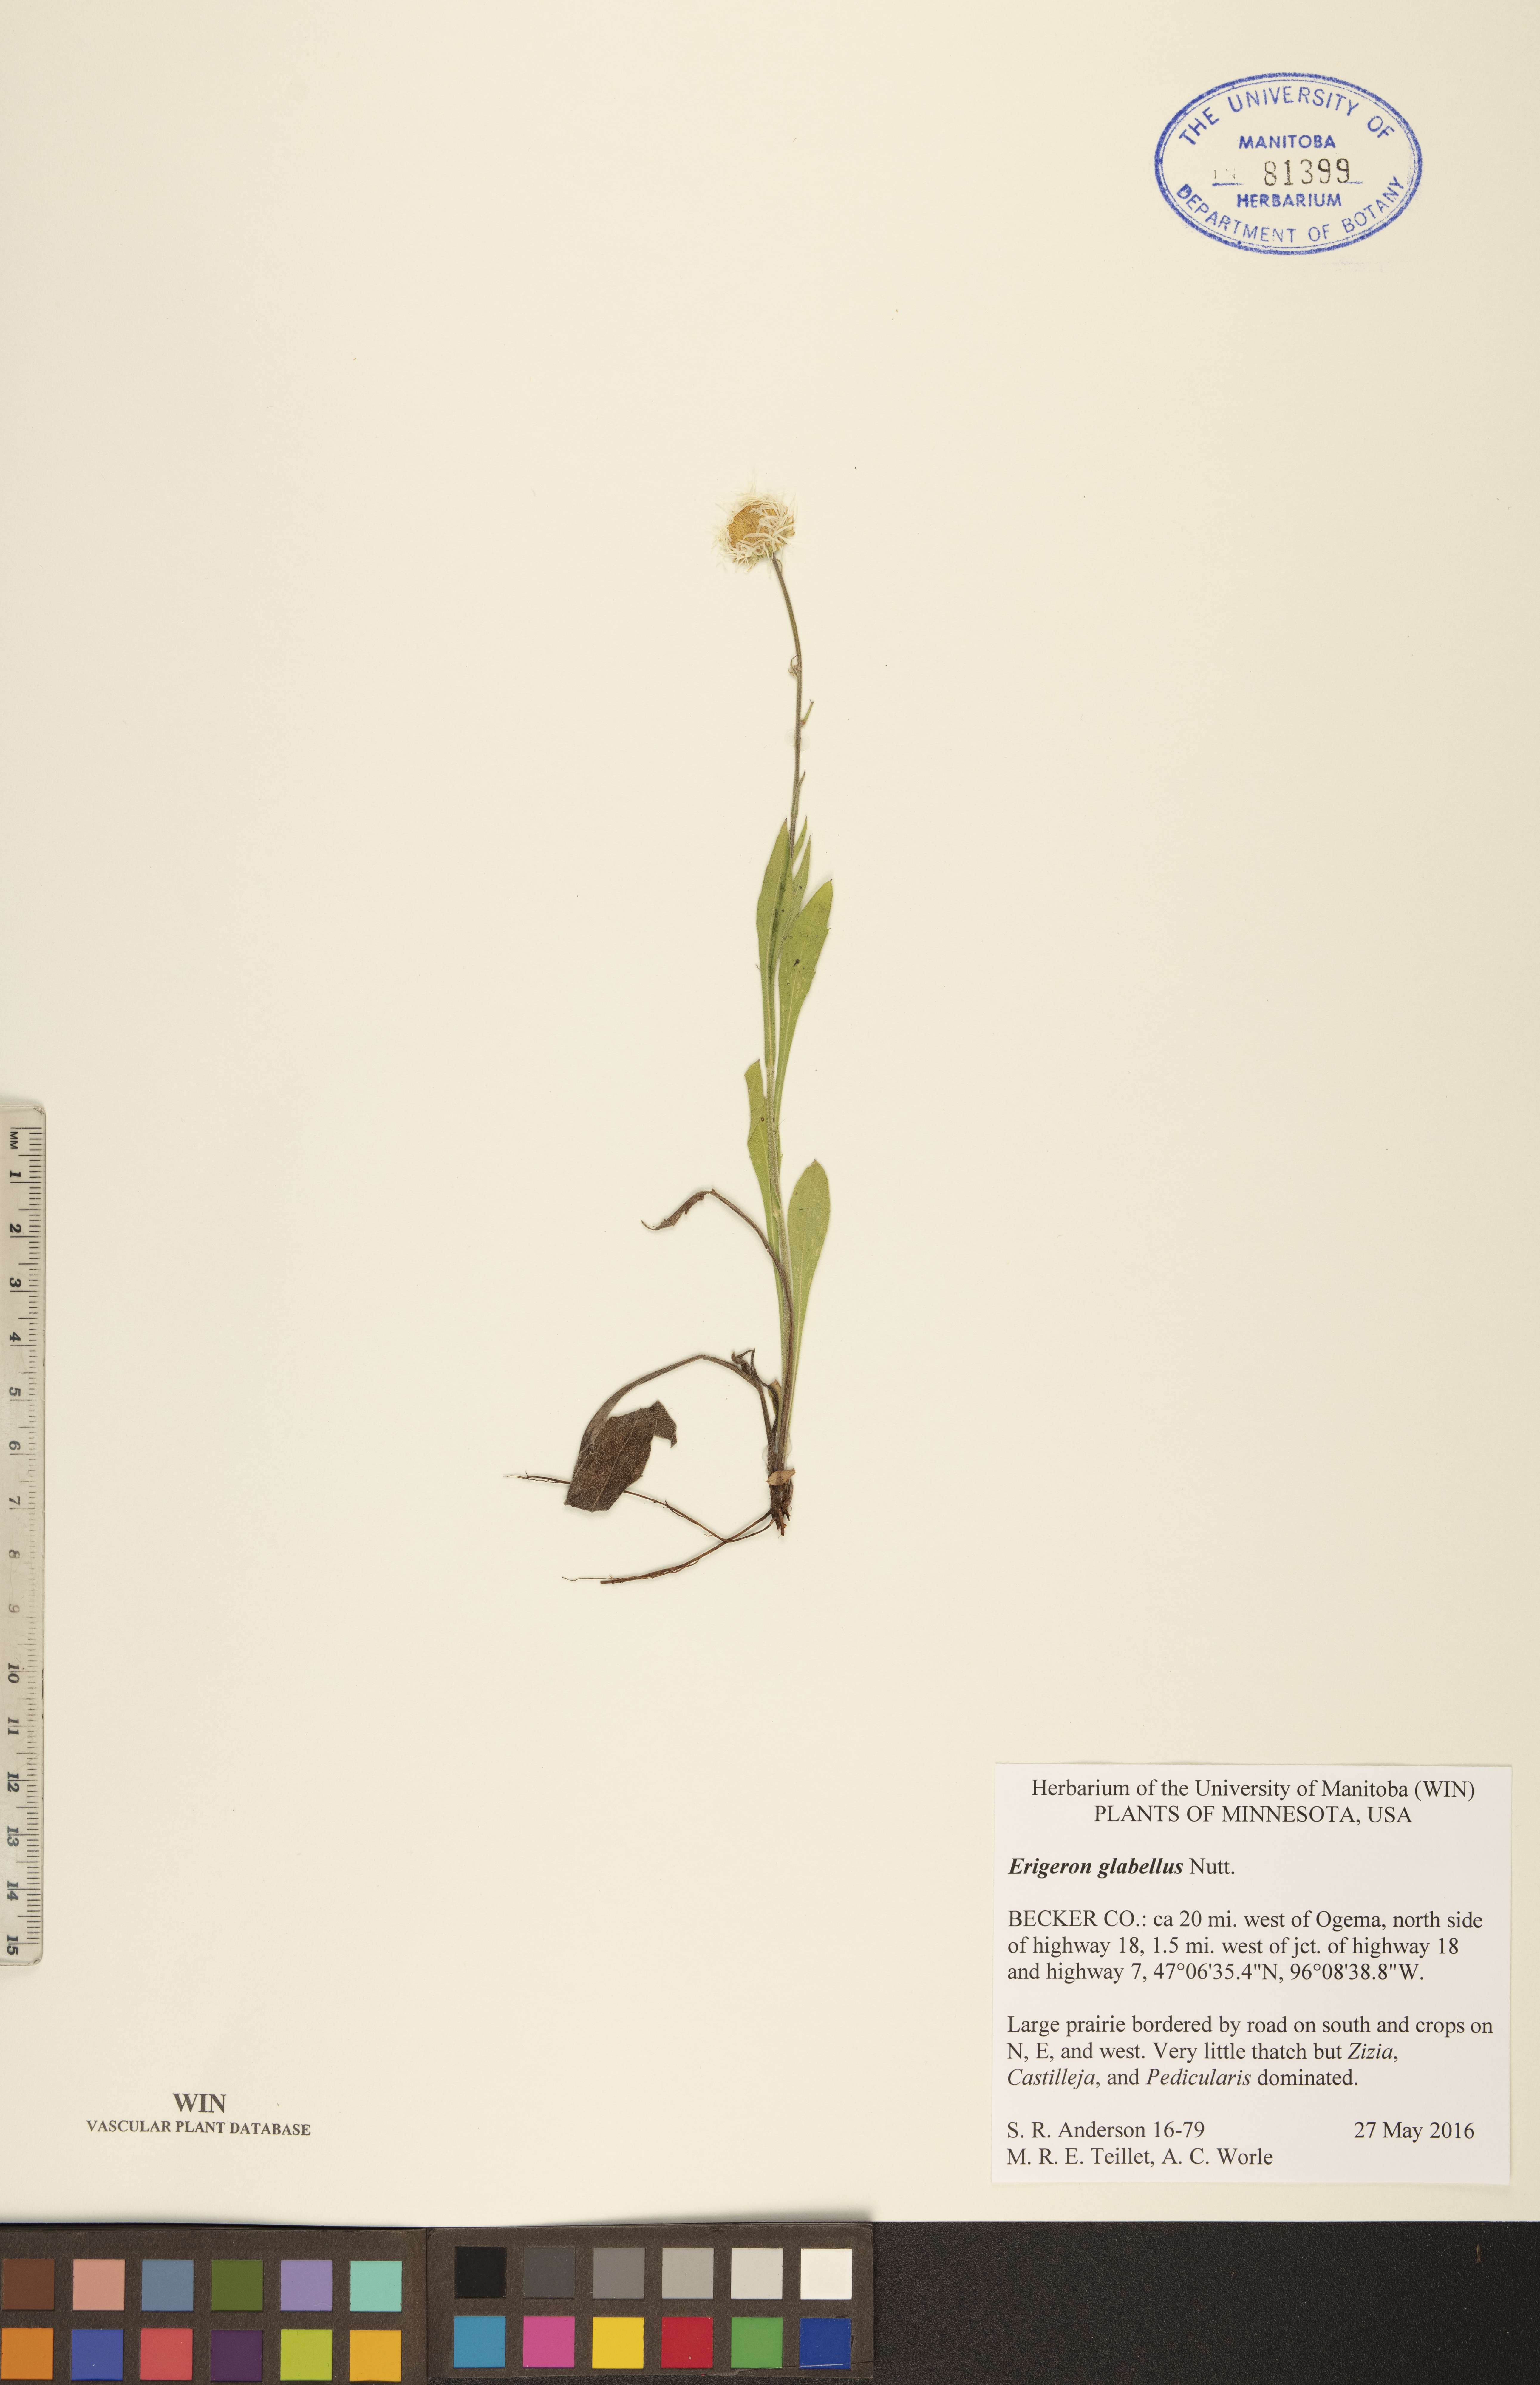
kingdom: Plantae
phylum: Tracheophyta
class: Magnoliopsida
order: Asterales
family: Asteraceae
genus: Erigeron
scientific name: Erigeron glabellus
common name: Smooth fleabane
